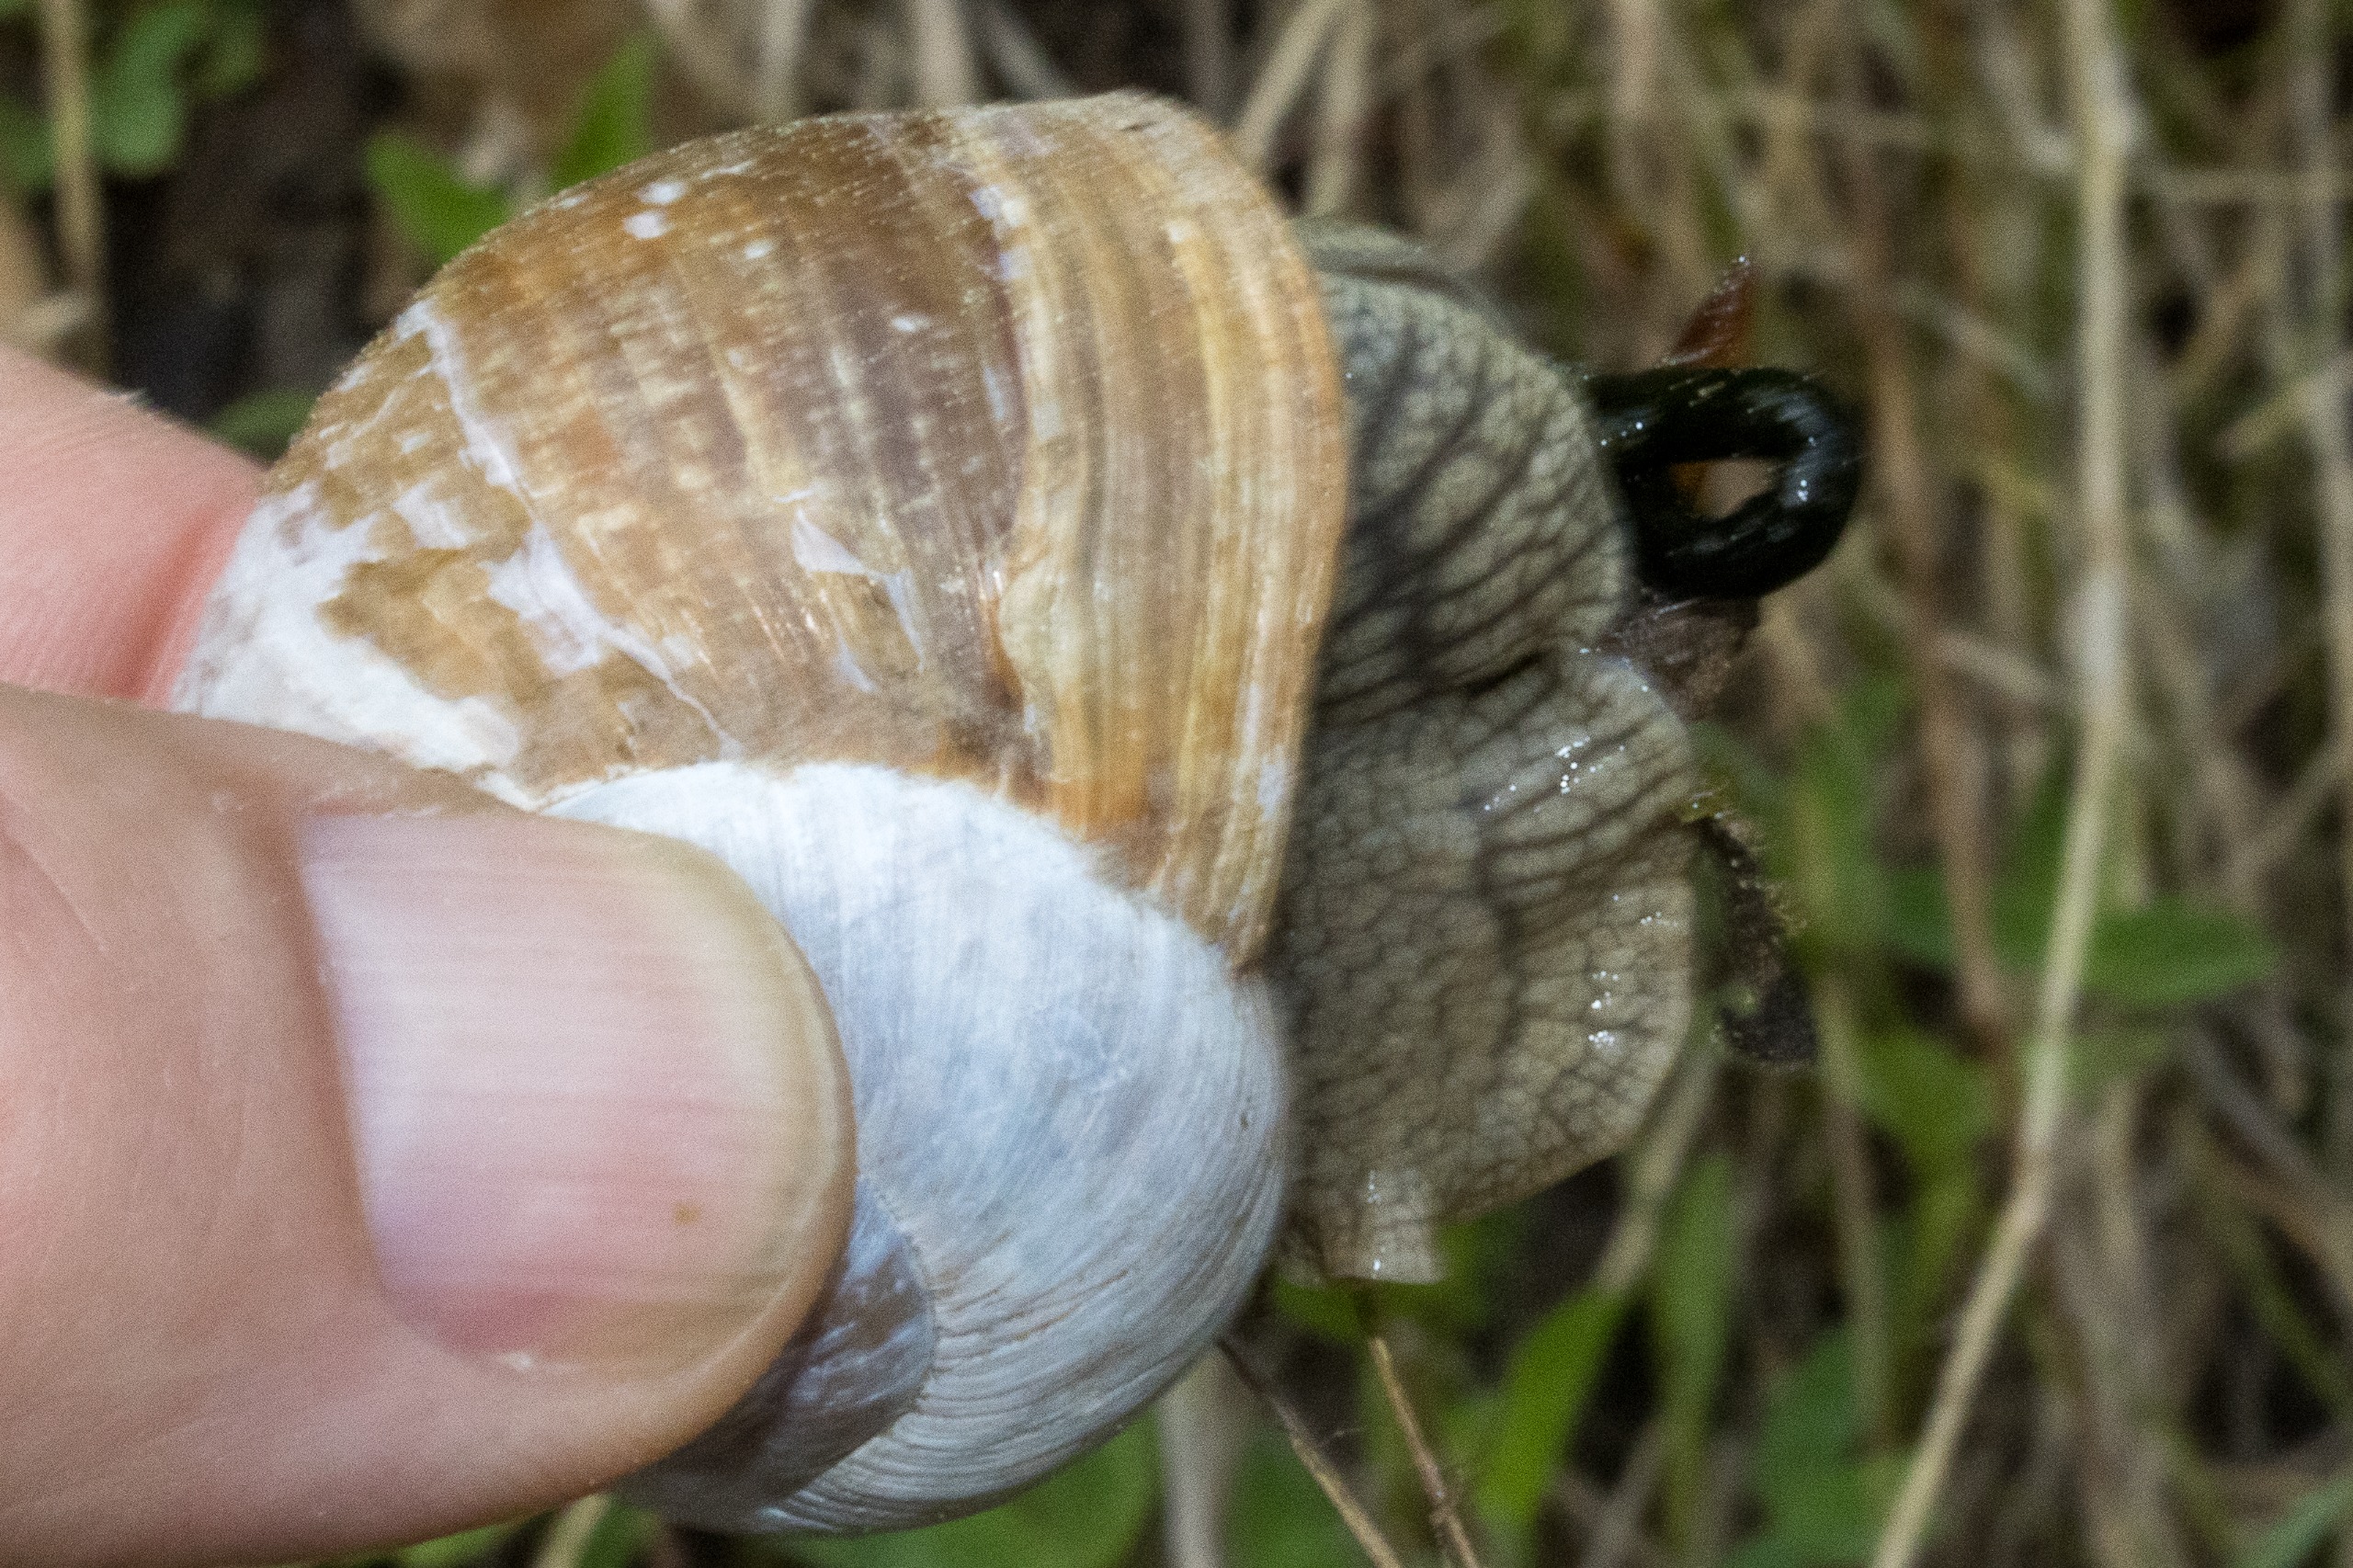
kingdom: Animalia
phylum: Mollusca
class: Gastropoda
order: Stylommatophora
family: Helicidae
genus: Helix
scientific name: Helix pomatia
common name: Vinbjergsnegl
